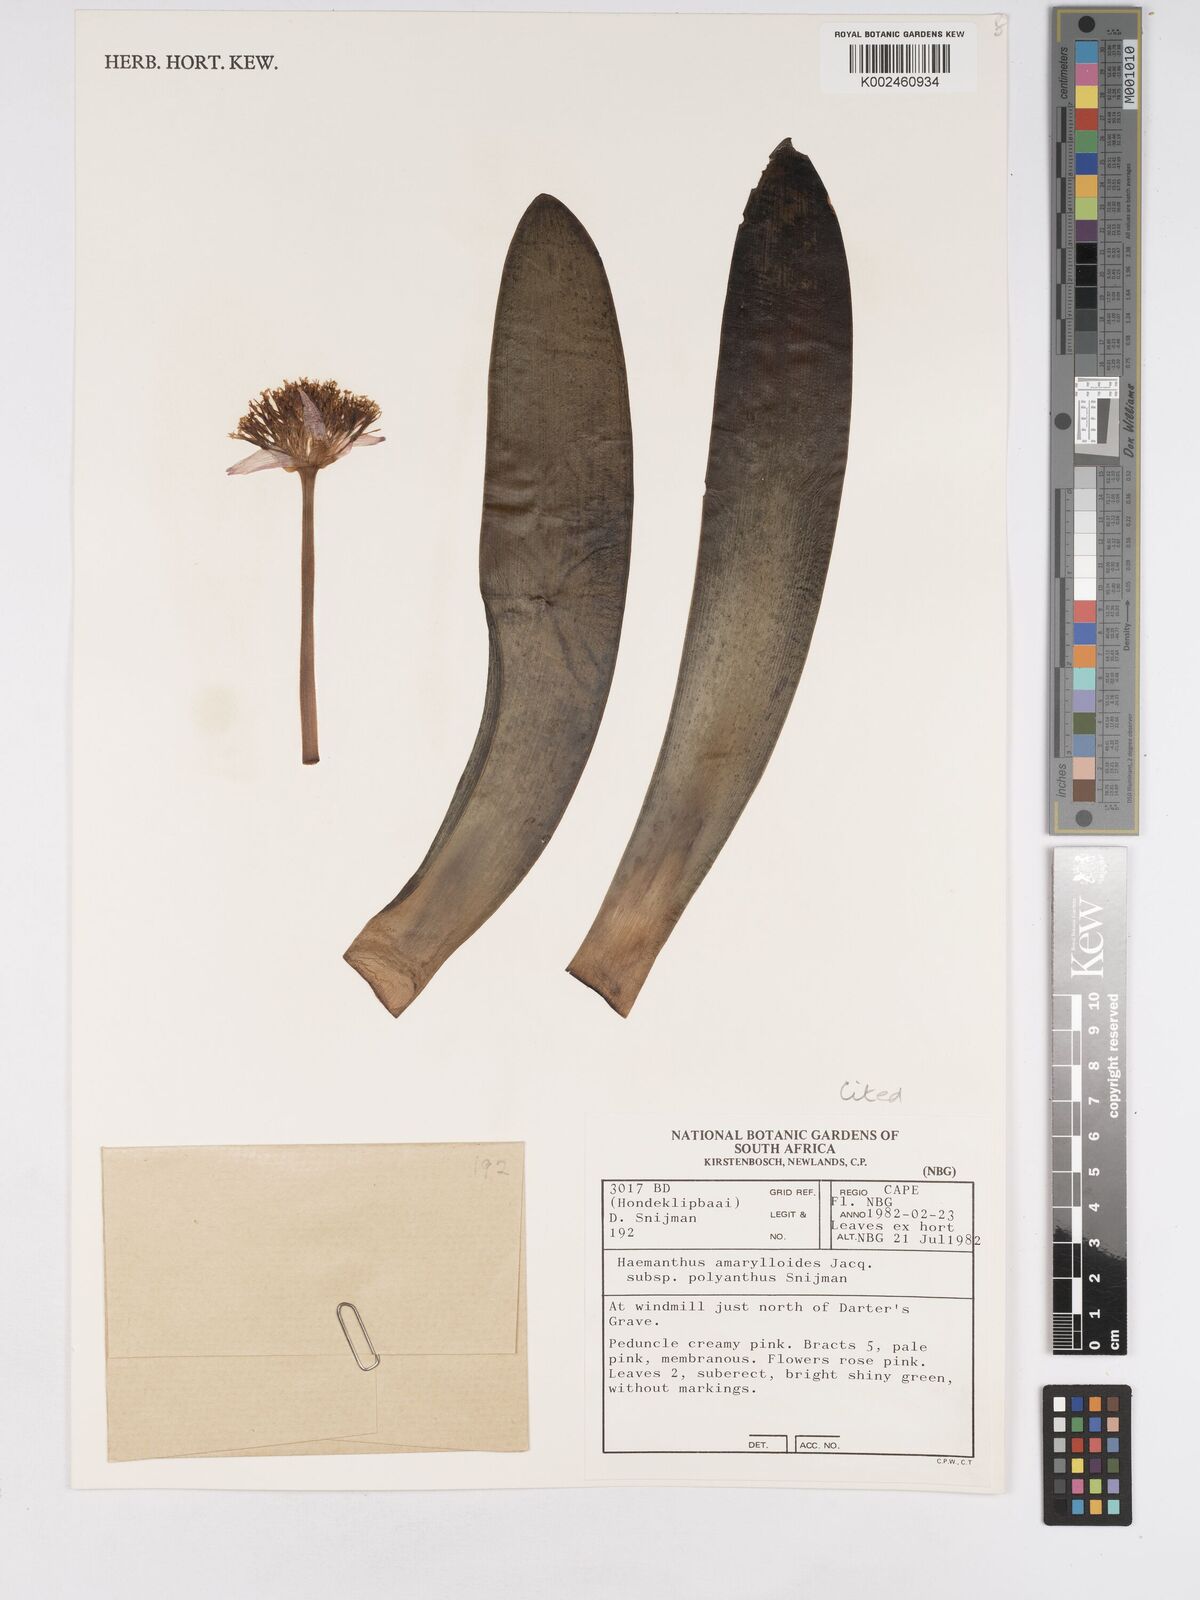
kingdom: Plantae
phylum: Tracheophyta
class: Liliopsida
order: Asparagales
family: Amaryllidaceae
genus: Haemanthus
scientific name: Haemanthus amarylloides
